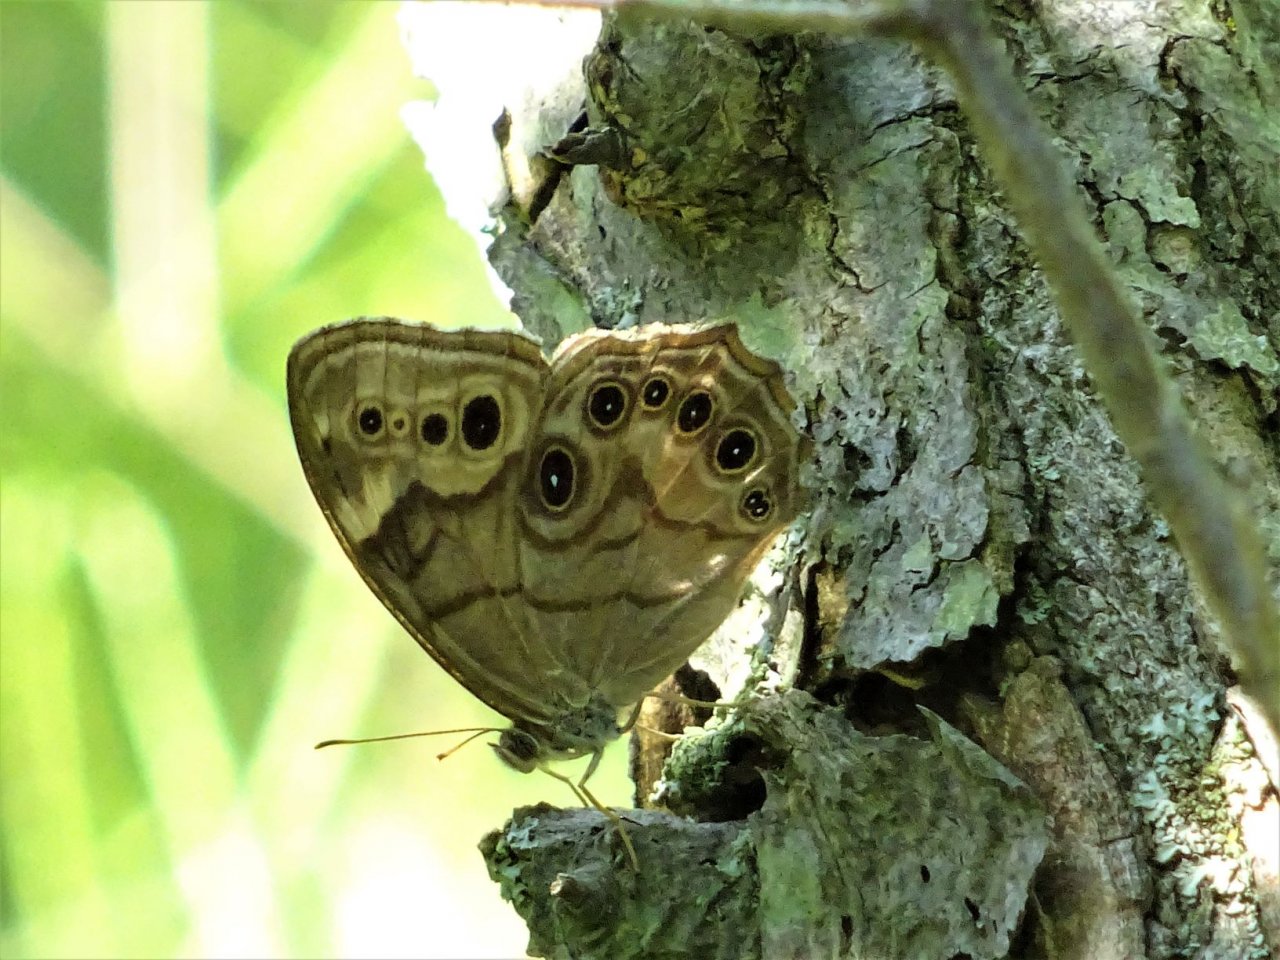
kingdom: Animalia
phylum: Arthropoda
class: Insecta
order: Lepidoptera
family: Nymphalidae
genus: Lethe
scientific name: Lethe anthedon
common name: Northern Pearly-Eye
